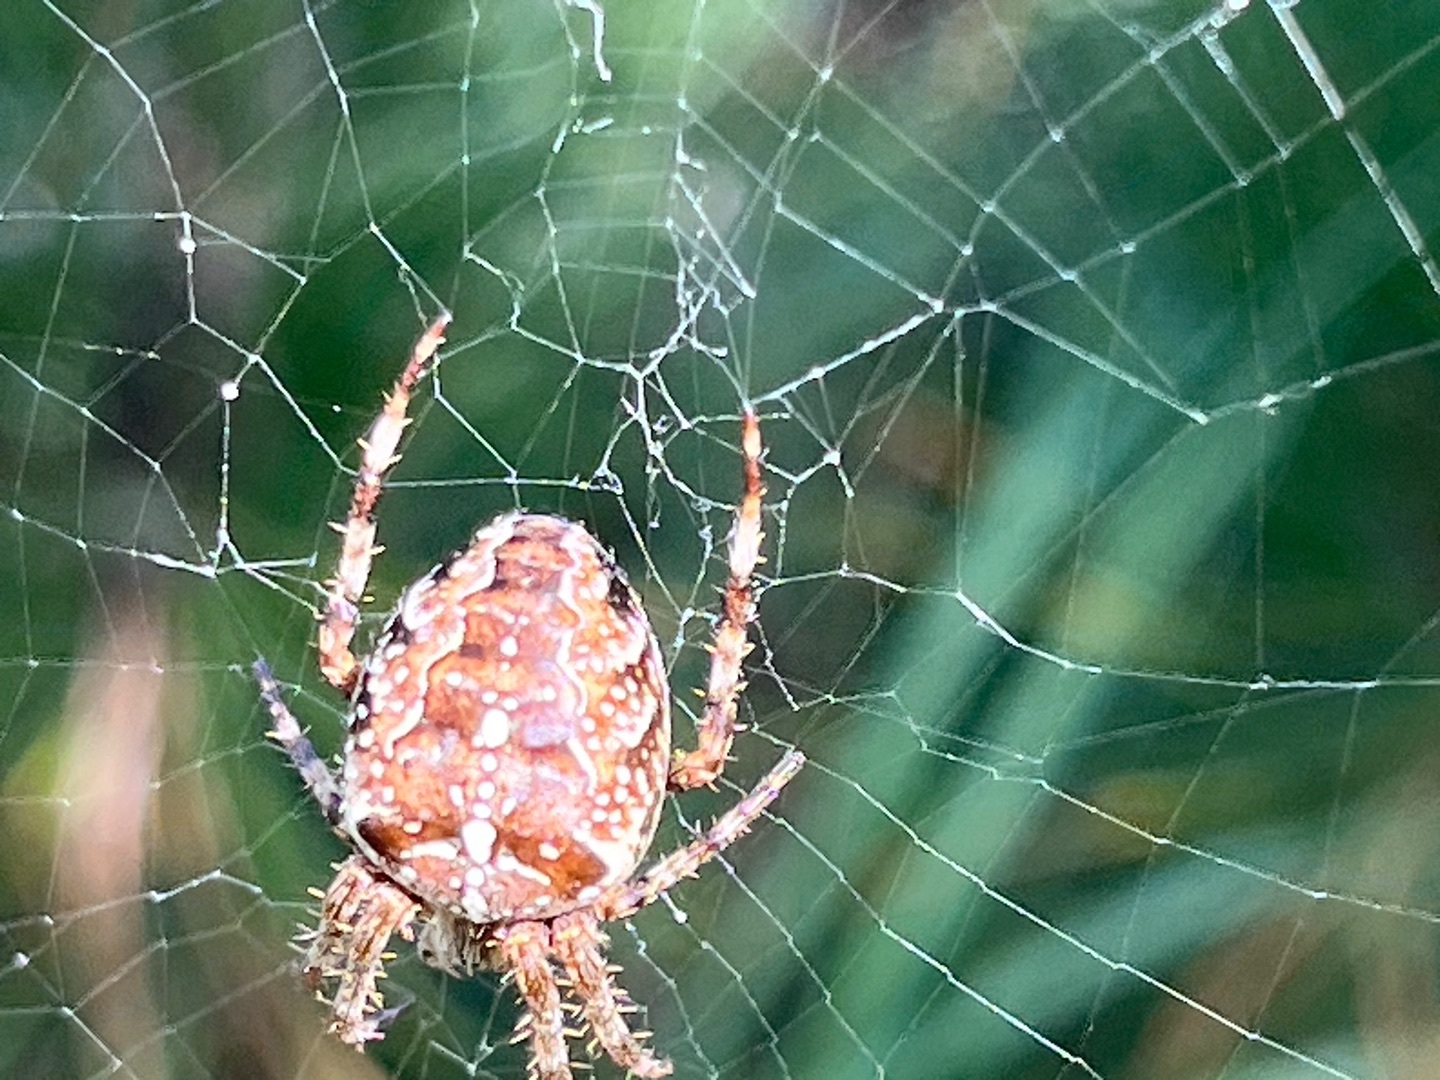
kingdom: Animalia
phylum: Arthropoda
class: Arachnida
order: Araneae
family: Araneidae
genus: Araneus
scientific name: Araneus diadematus
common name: Korsedderkop
